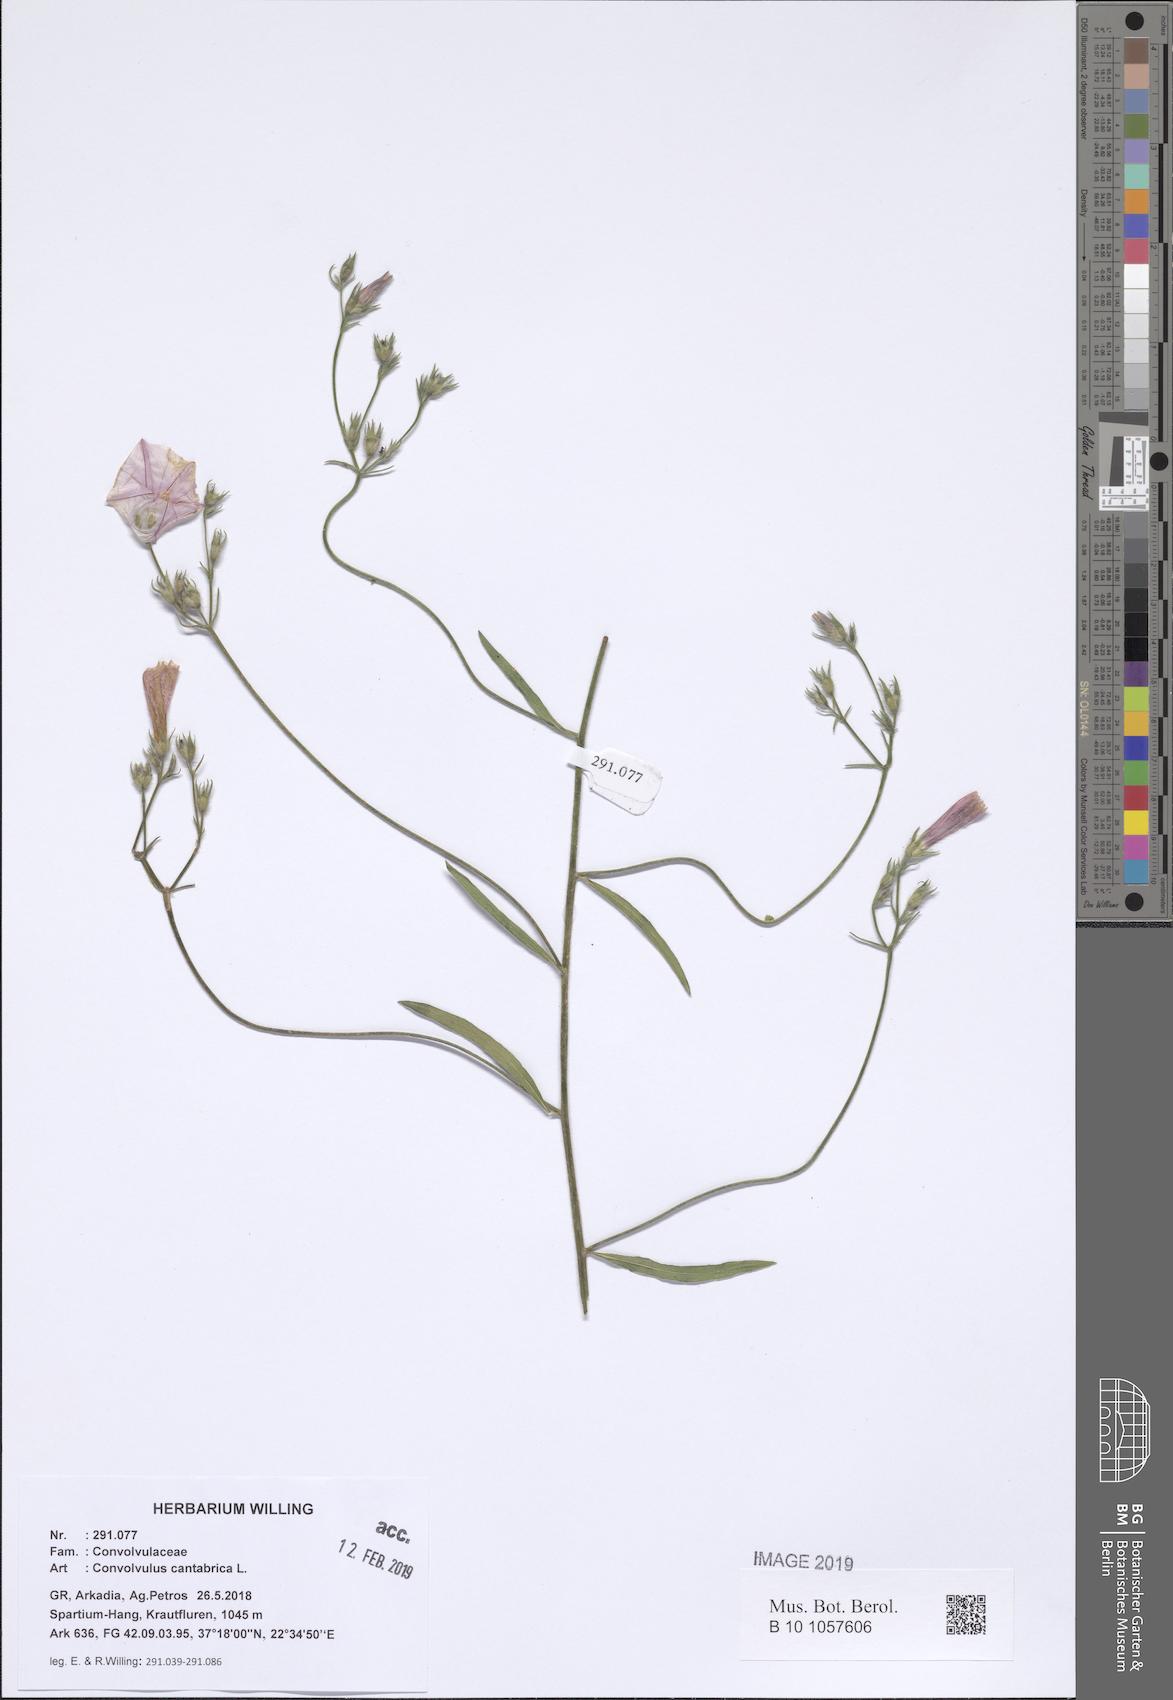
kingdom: Plantae
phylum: Tracheophyta
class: Magnoliopsida
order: Solanales
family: Convolvulaceae
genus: Convolvulus
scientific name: Convolvulus cantabrica
